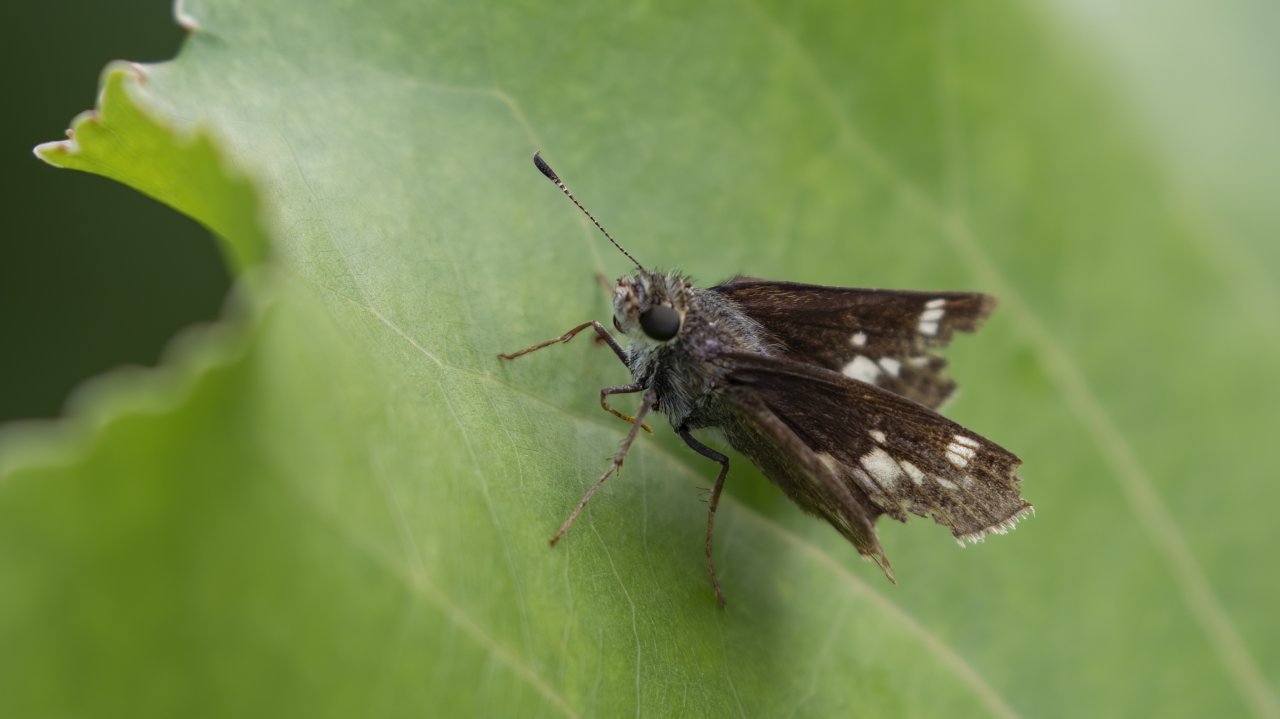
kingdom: Animalia
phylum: Arthropoda
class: Insecta
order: Lepidoptera
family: Hesperiidae
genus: Vernia
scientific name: Vernia verna
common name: Little Glassywing
